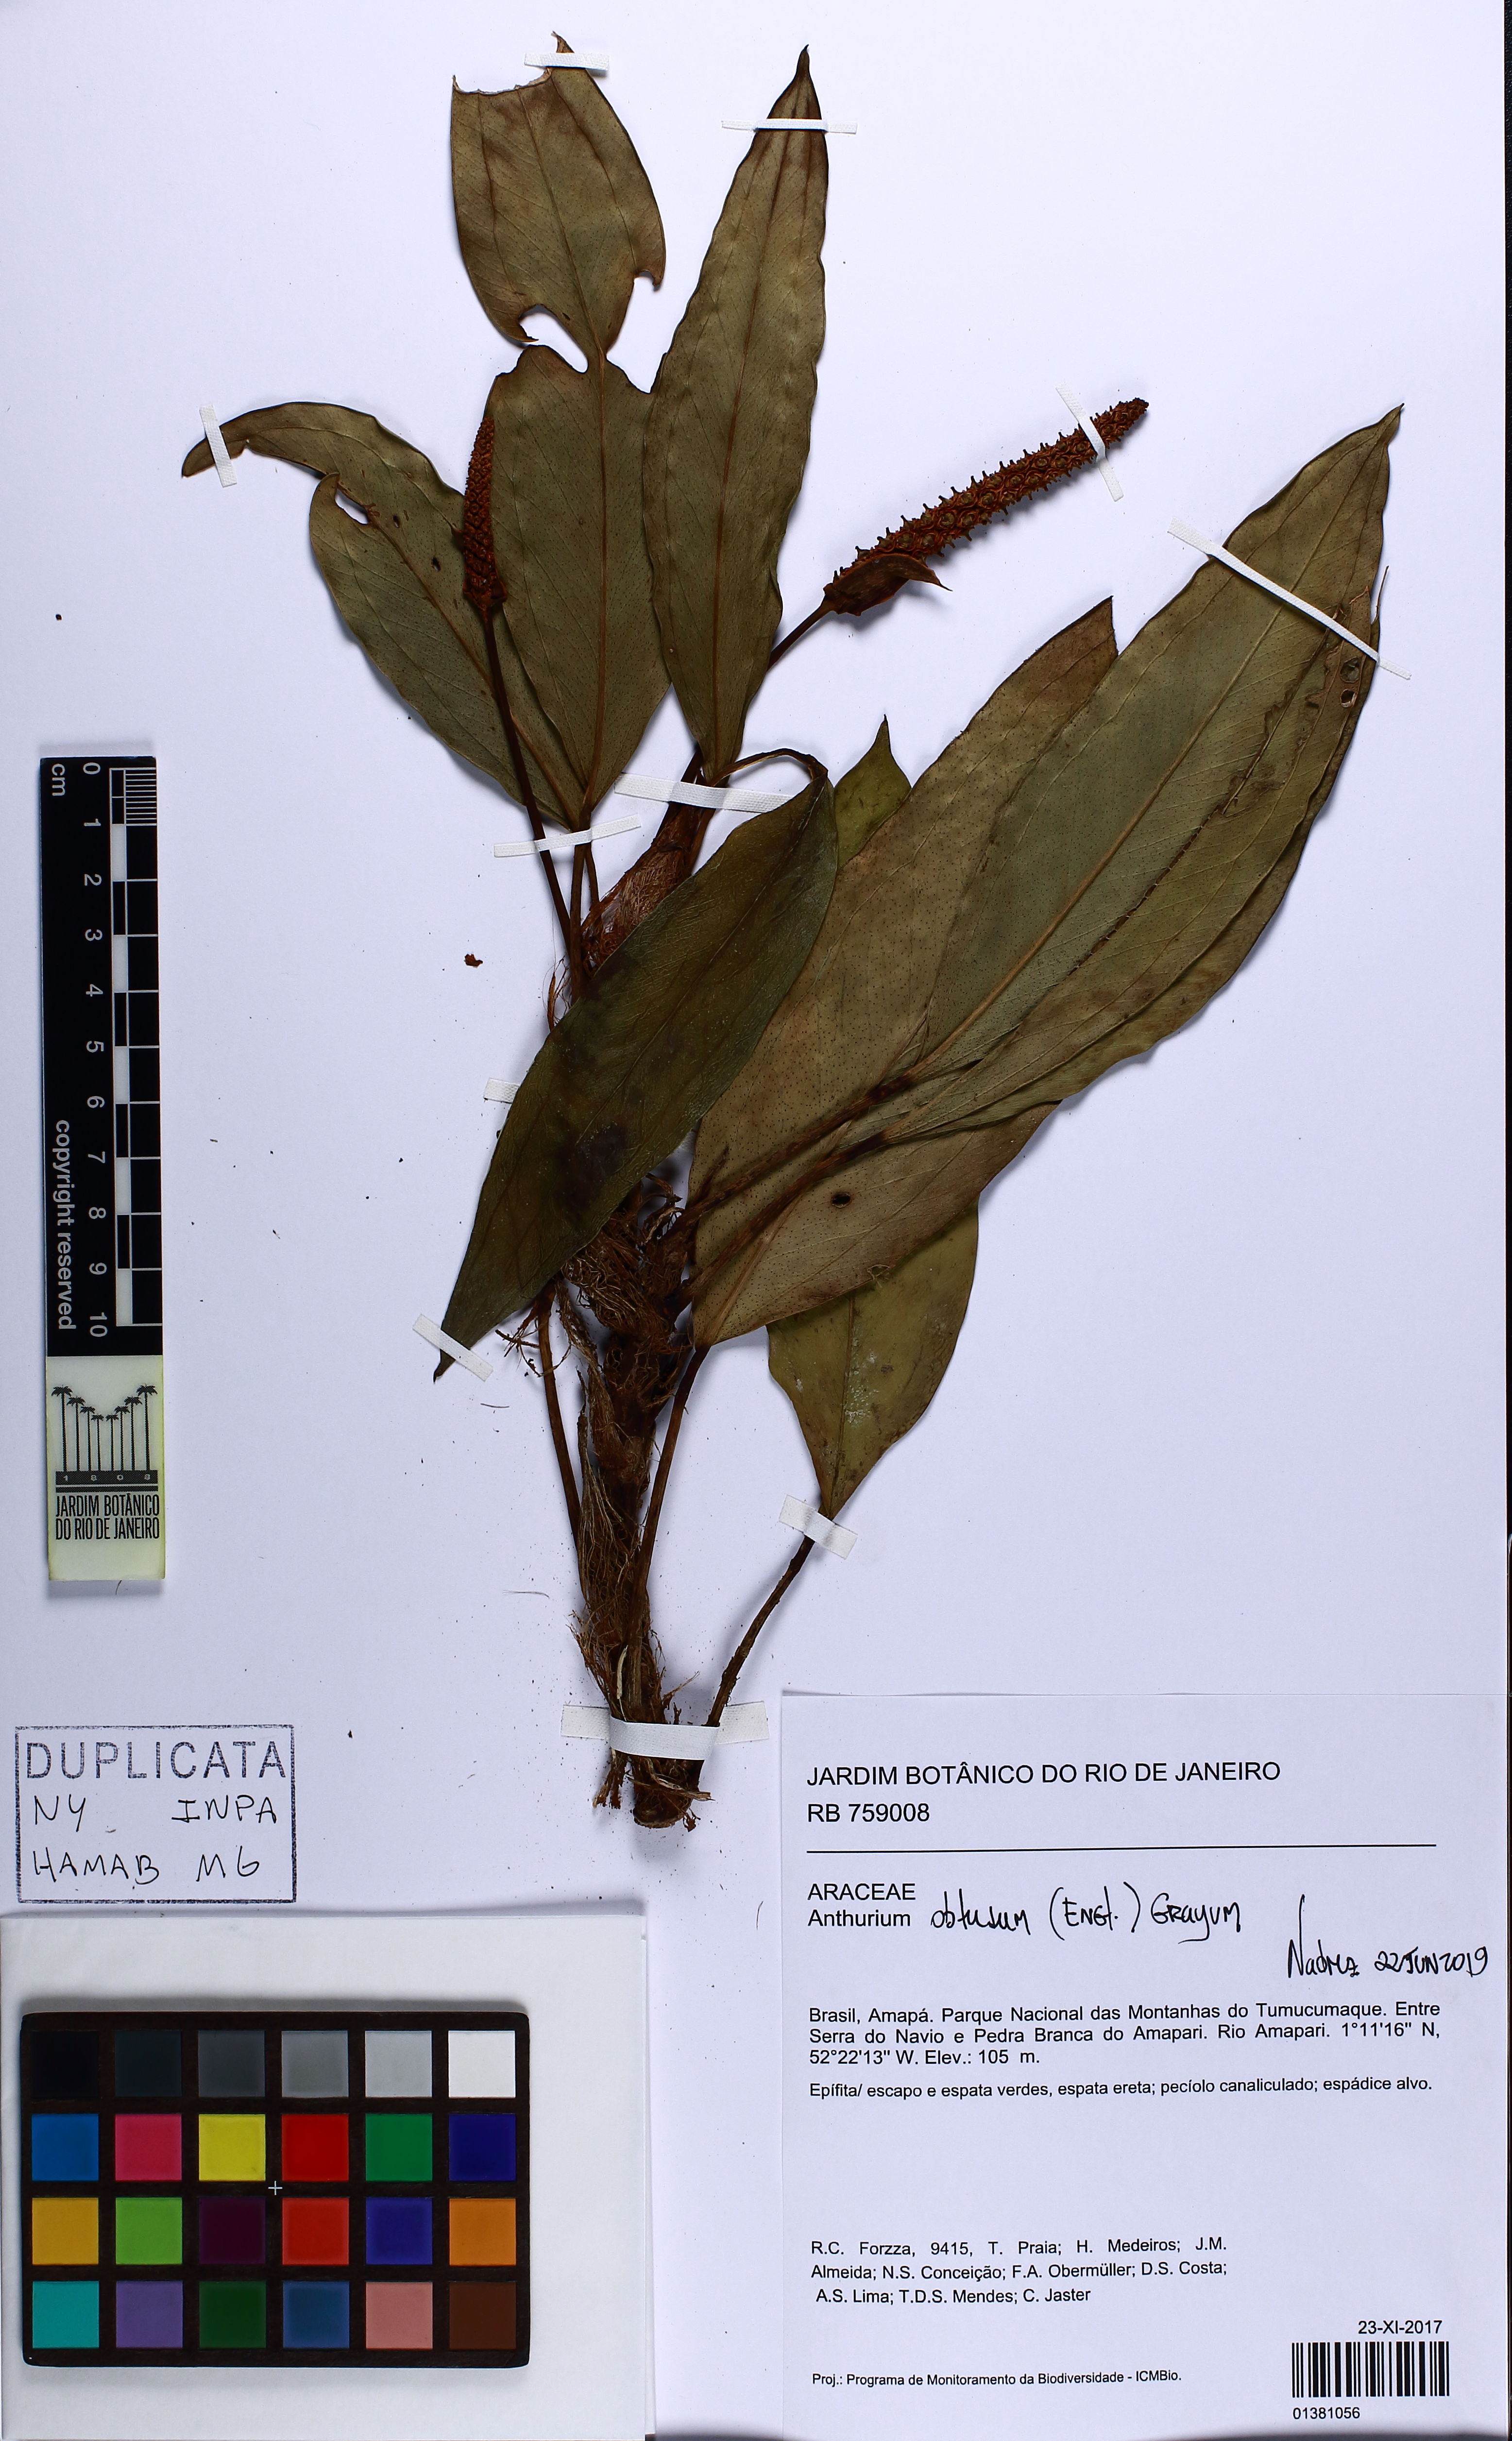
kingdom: Plantae
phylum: Tracheophyta
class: Liliopsida
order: Alismatales
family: Araceae
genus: Anthurium
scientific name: Anthurium obtusum
